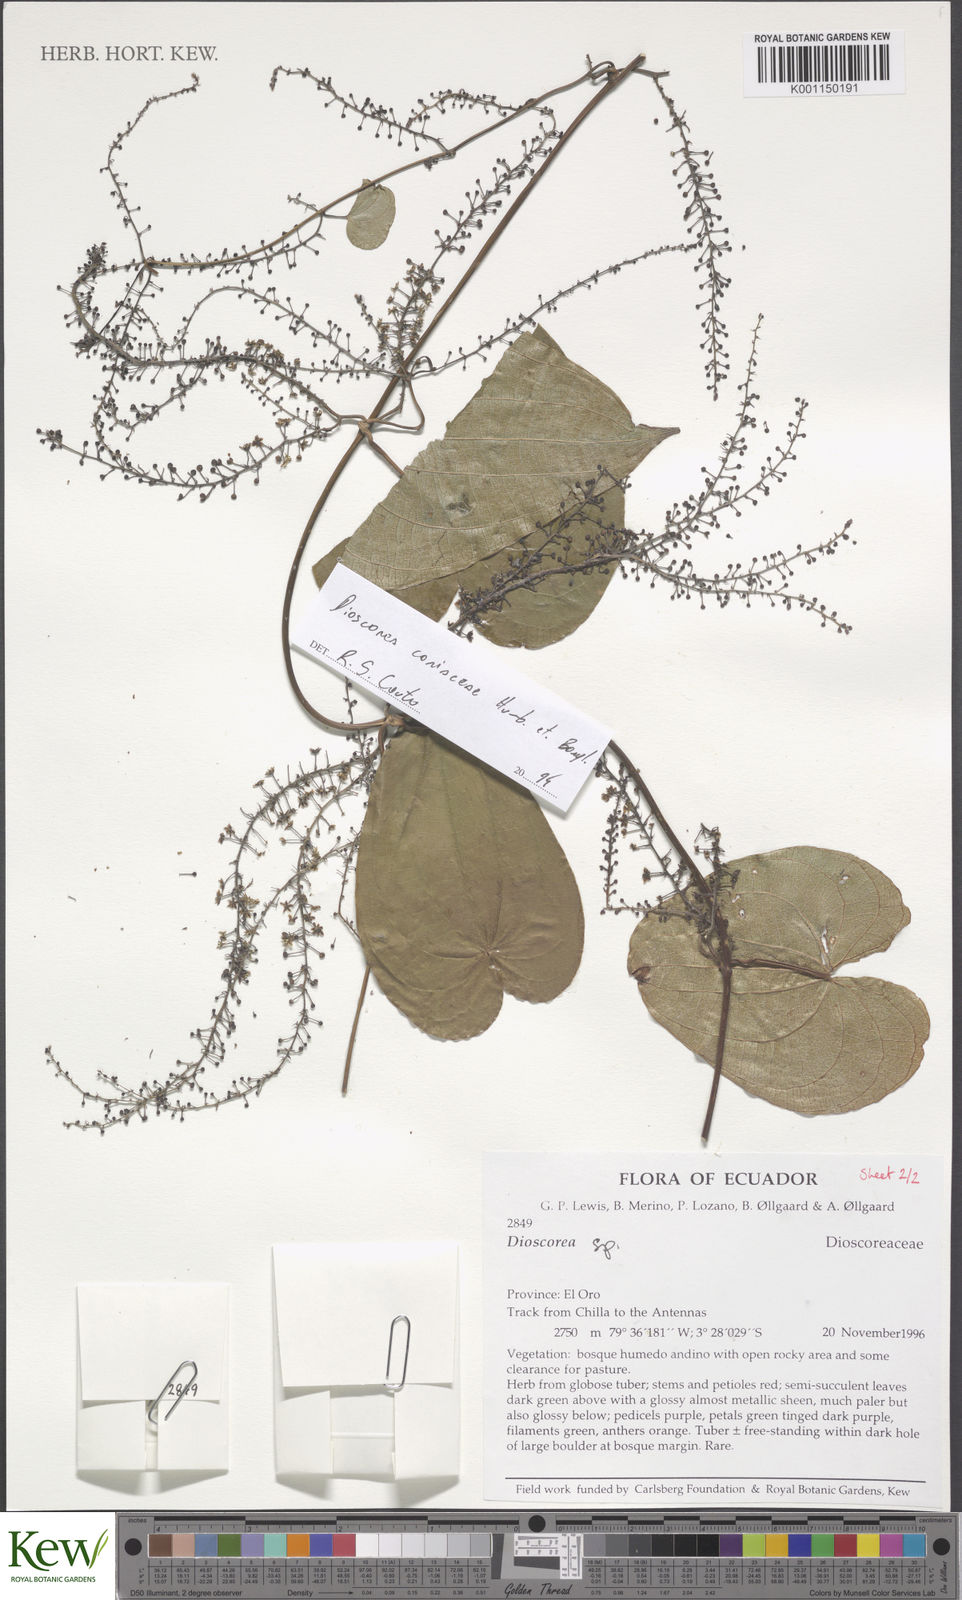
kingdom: Plantae
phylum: Tracheophyta
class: Liliopsida
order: Dioscoreales
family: Dioscoreaceae
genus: Dioscorea
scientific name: Dioscorea coriacea
